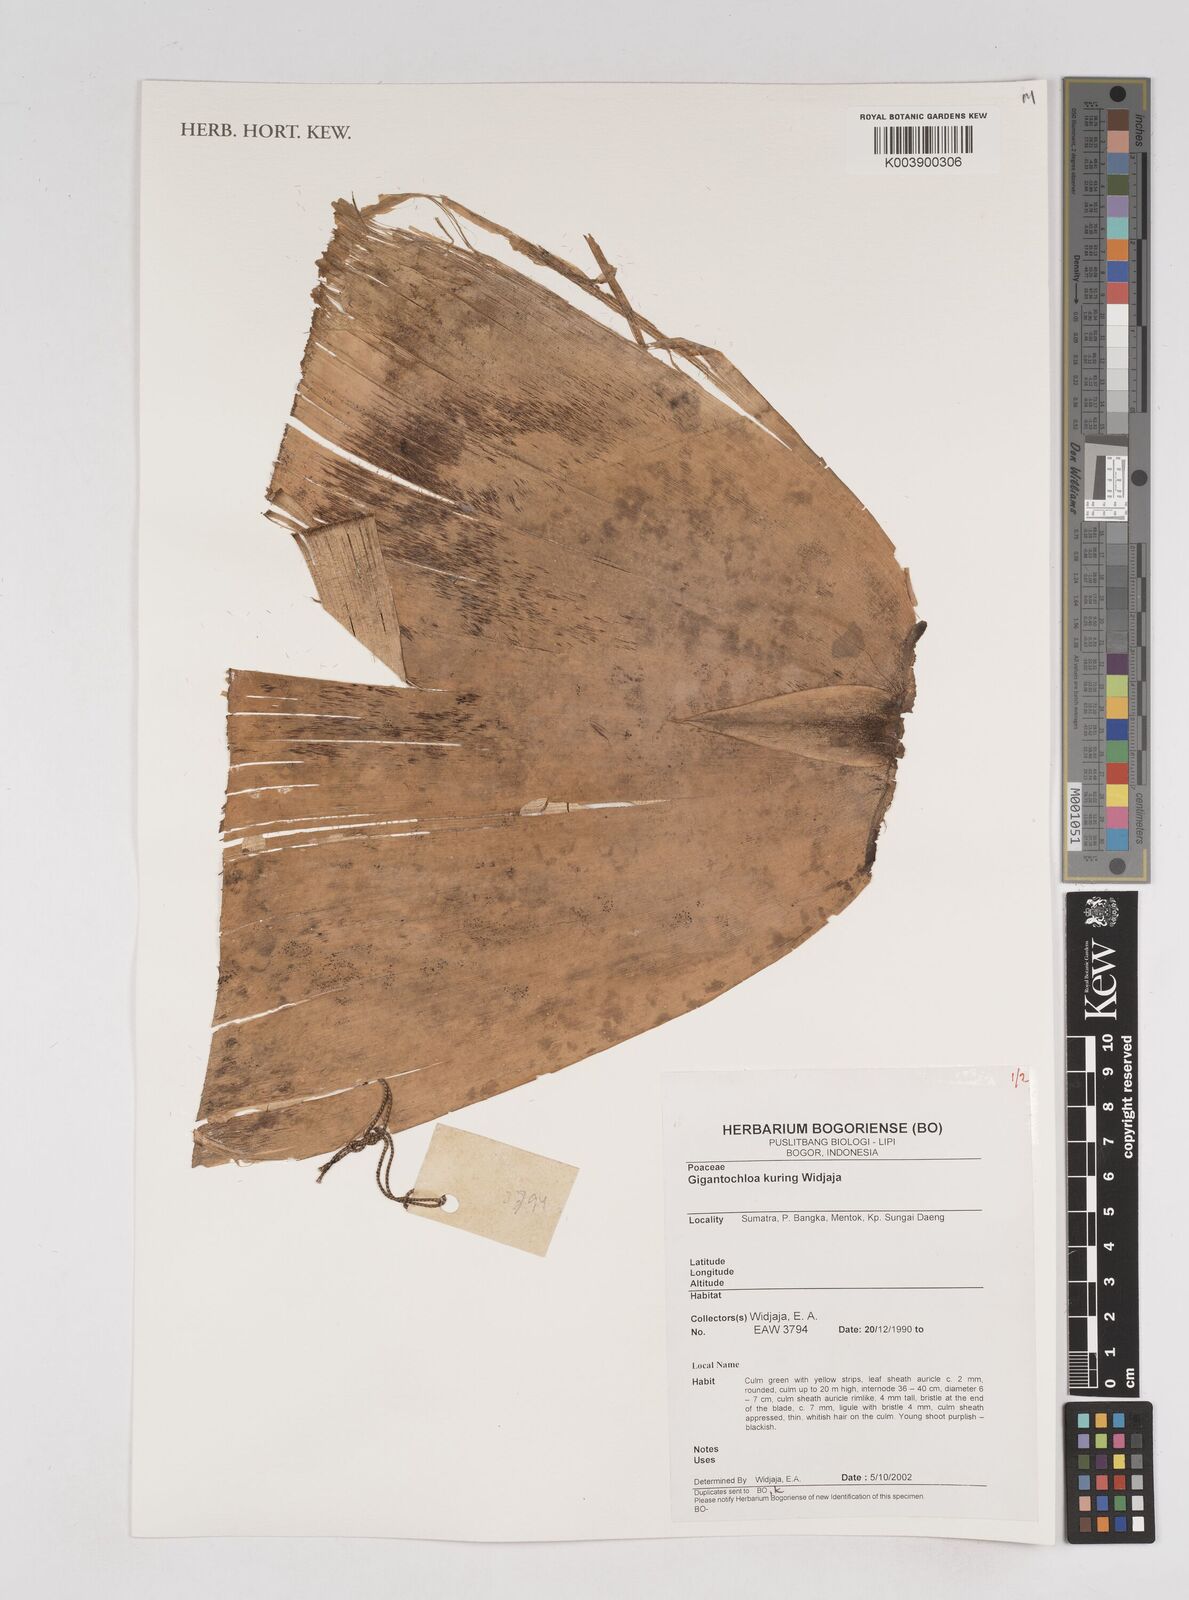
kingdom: Plantae
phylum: Tracheophyta
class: Liliopsida
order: Poales
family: Poaceae
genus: Gigantochloa
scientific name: Gigantochloa kuring
